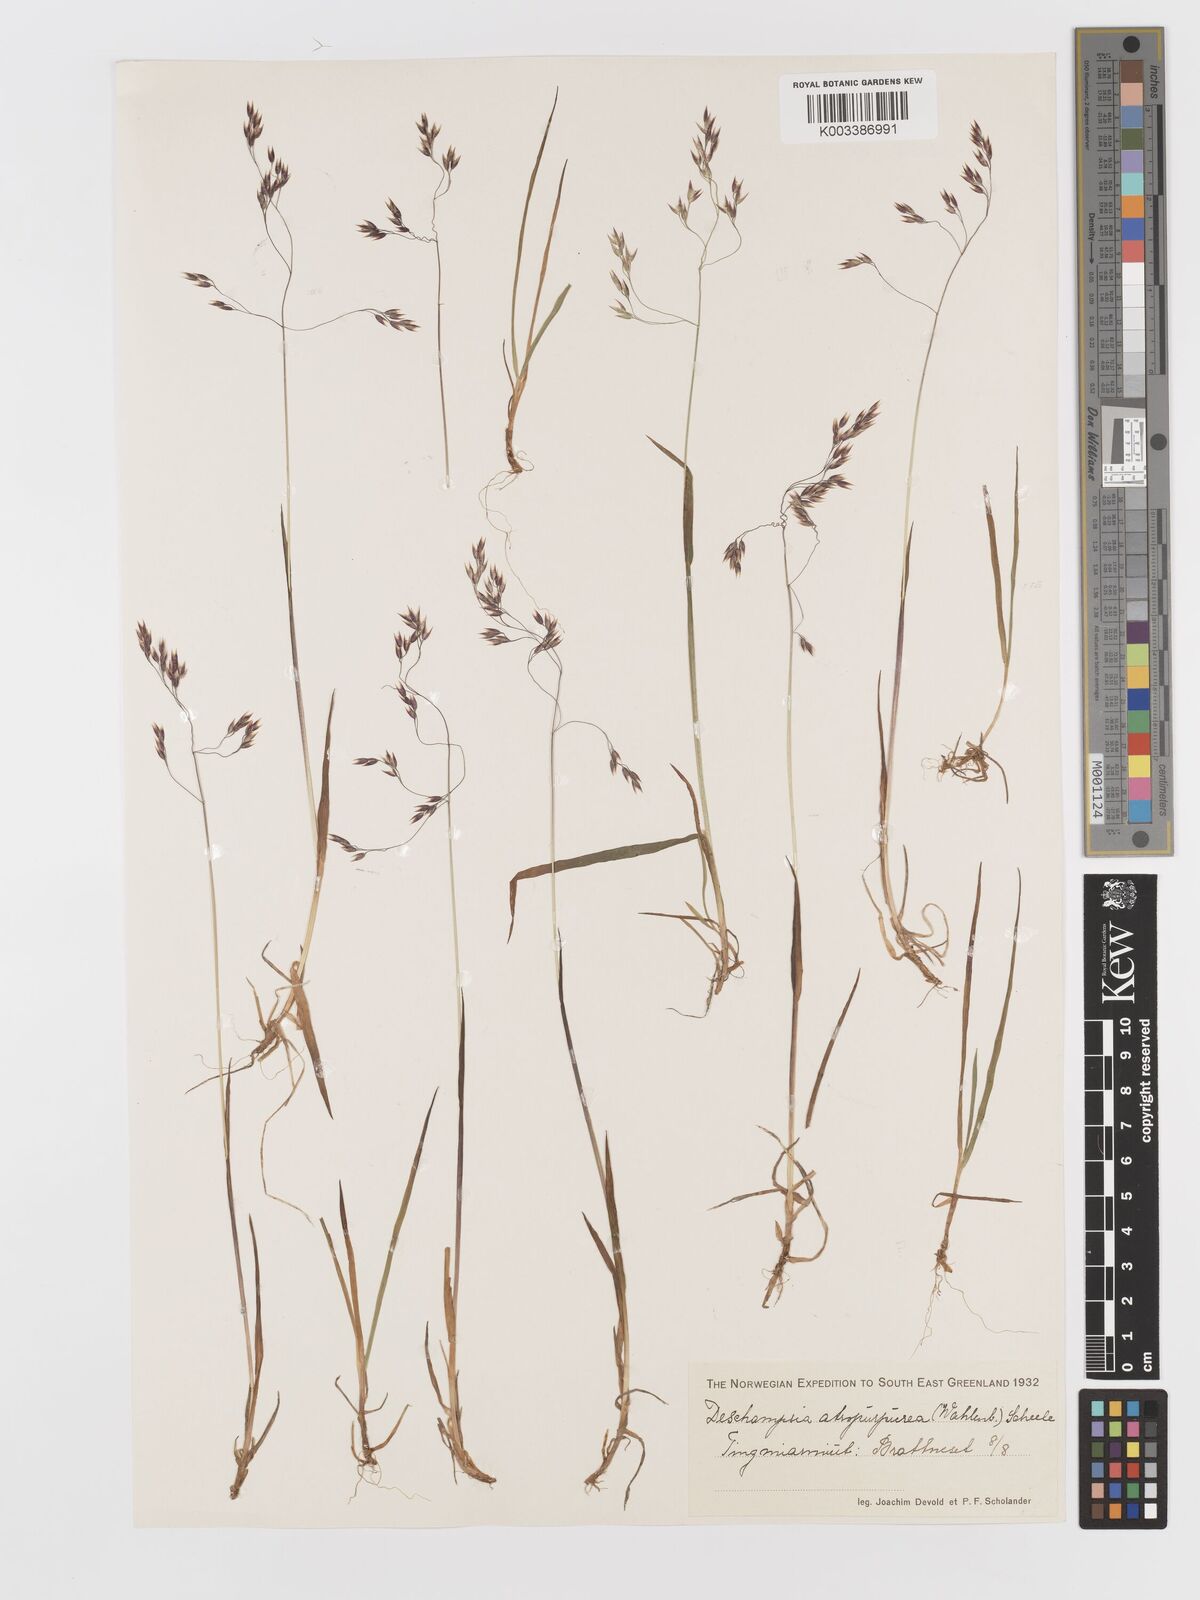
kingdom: Plantae
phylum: Tracheophyta
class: Liliopsida
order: Poales
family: Poaceae
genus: Vahlodea
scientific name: Vahlodea atropurpurea
